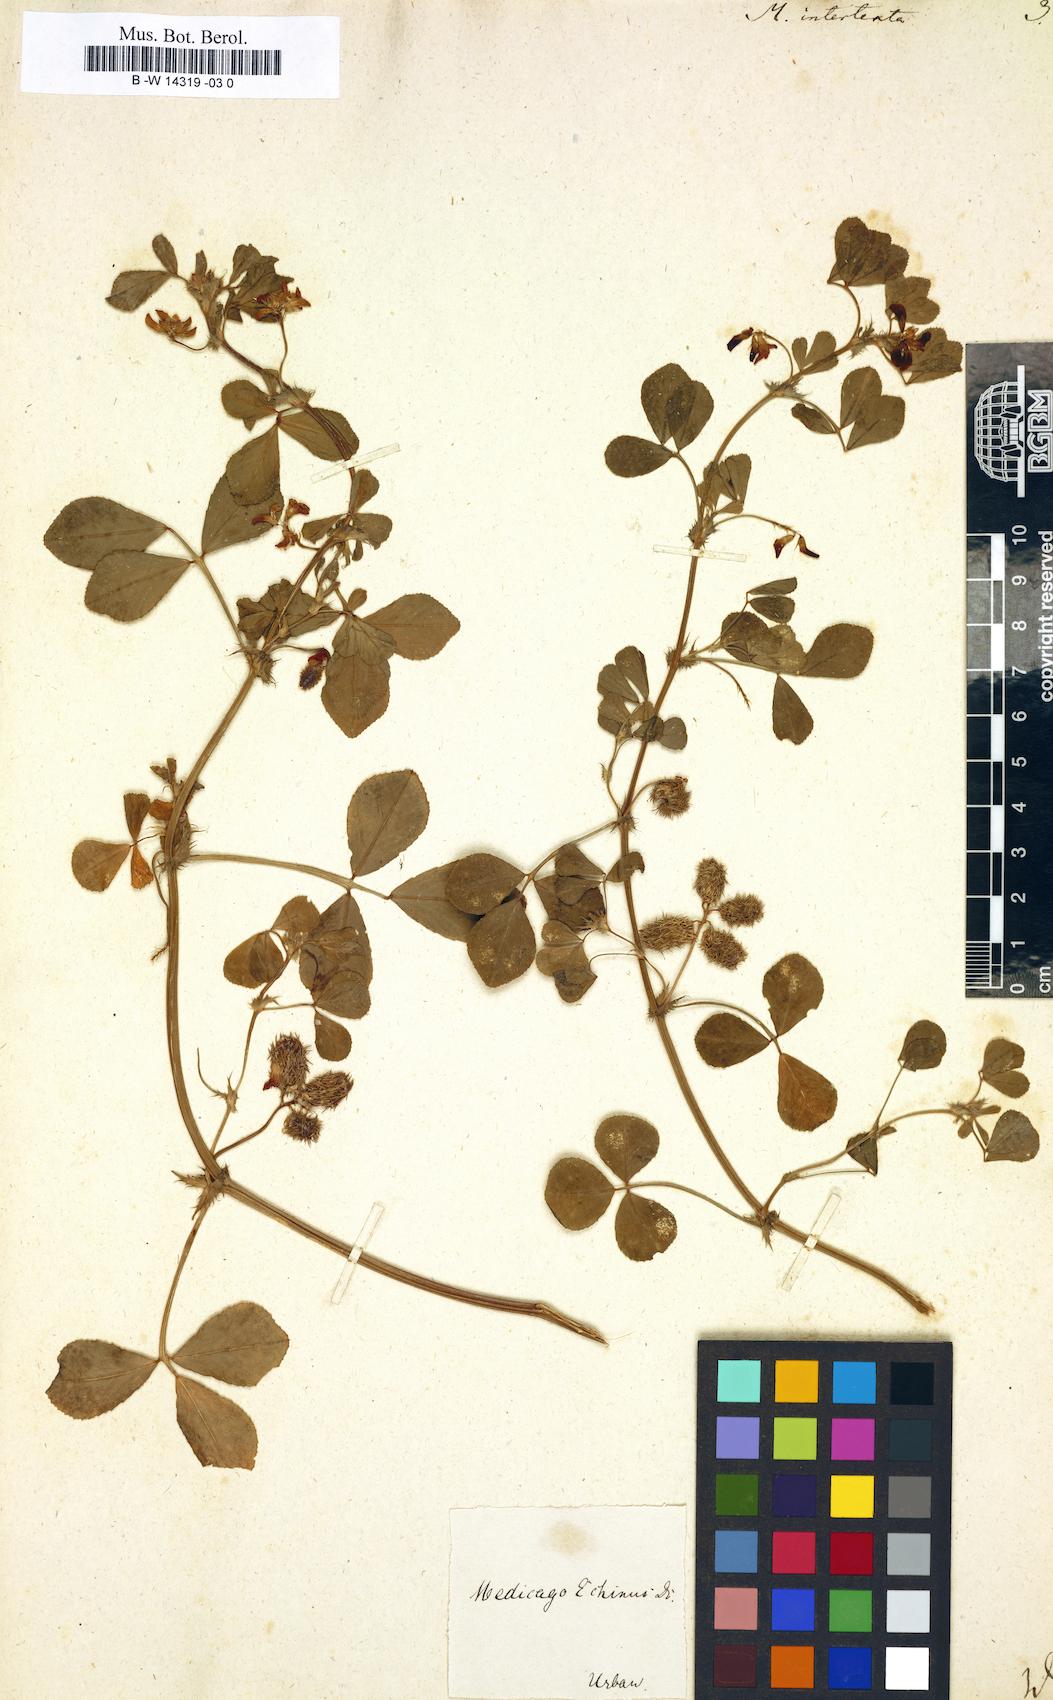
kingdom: Plantae
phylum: Tracheophyta
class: Magnoliopsida
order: Fabales
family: Fabaceae
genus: Medicago
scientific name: Medicago intertexta
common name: Hedgehog medick
